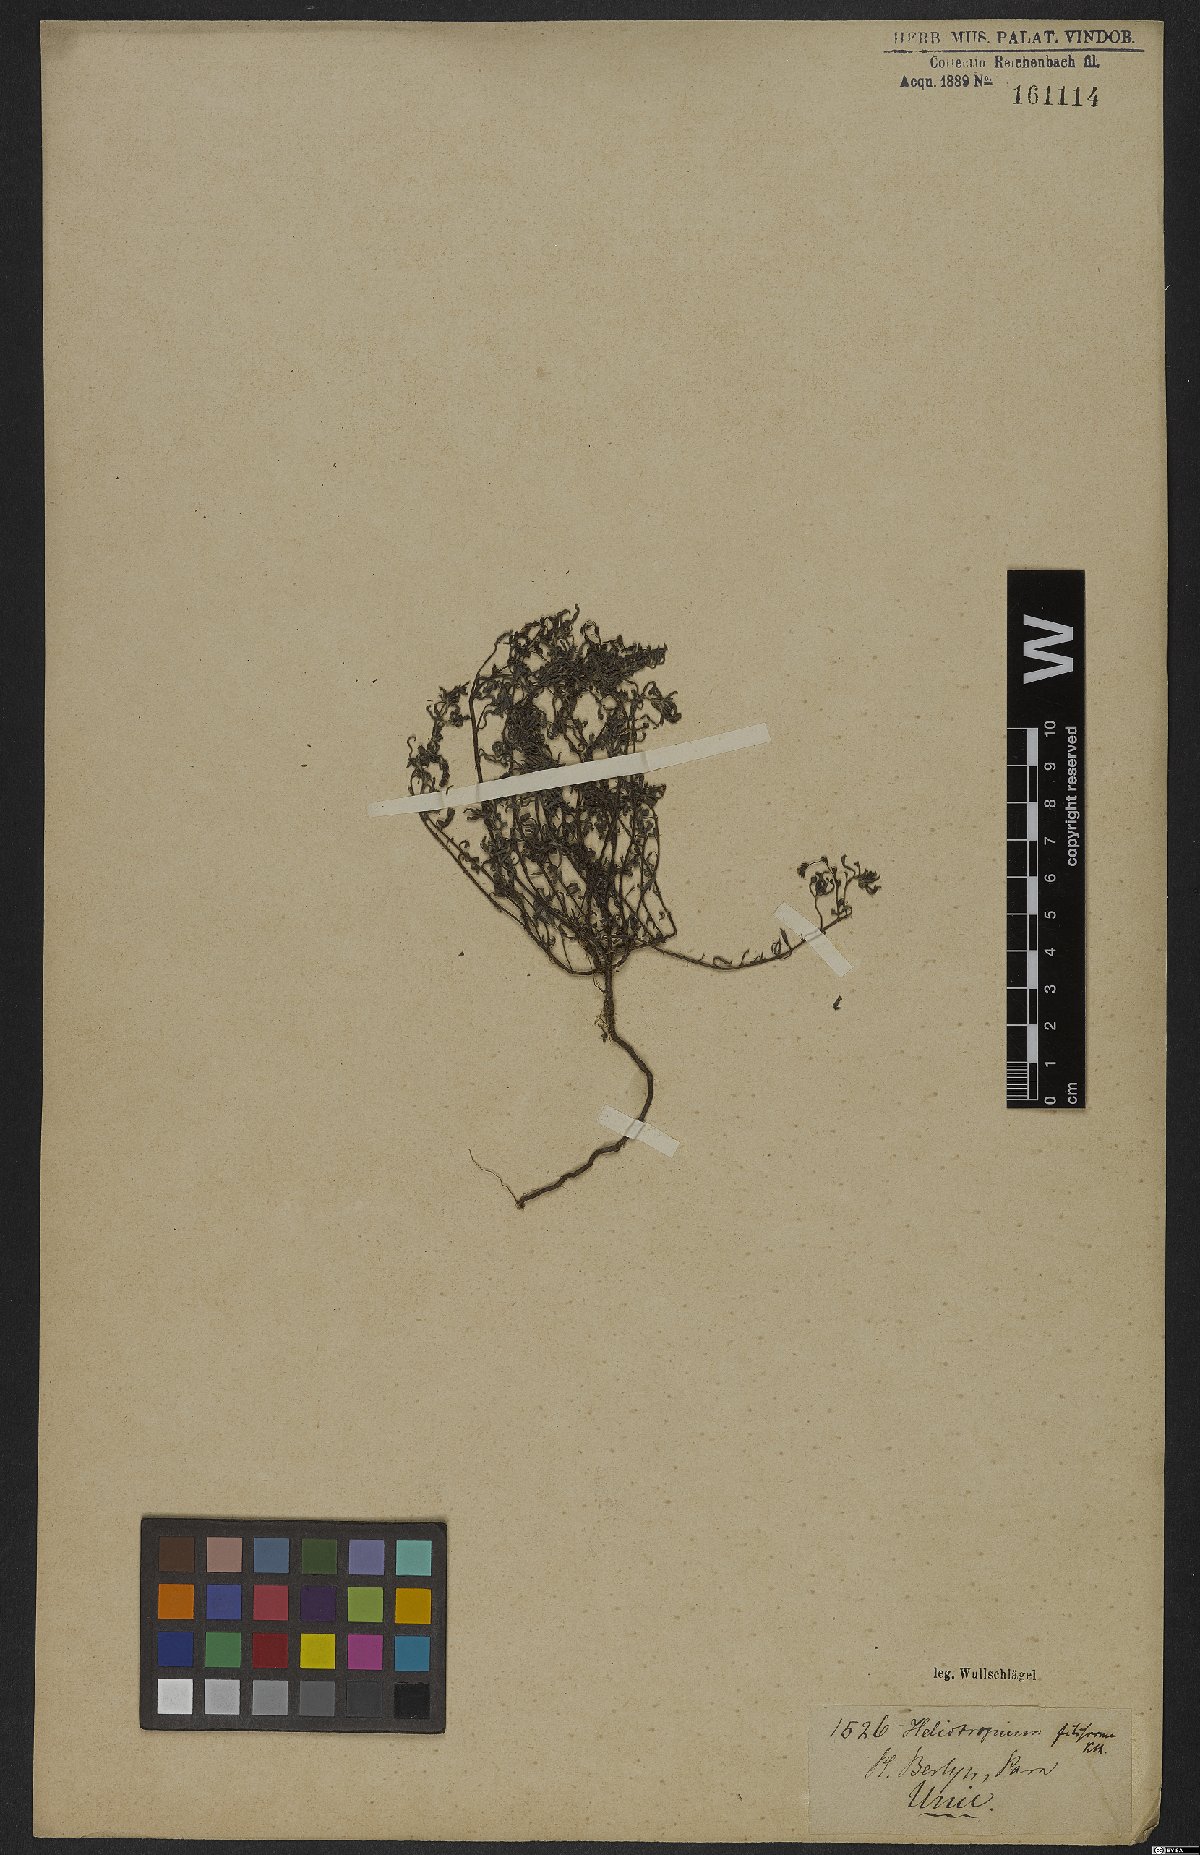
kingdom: Plantae
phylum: Tracheophyta
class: Magnoliopsida
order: Boraginales
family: Heliotropiaceae
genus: Euploca
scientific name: Euploca filiformis
